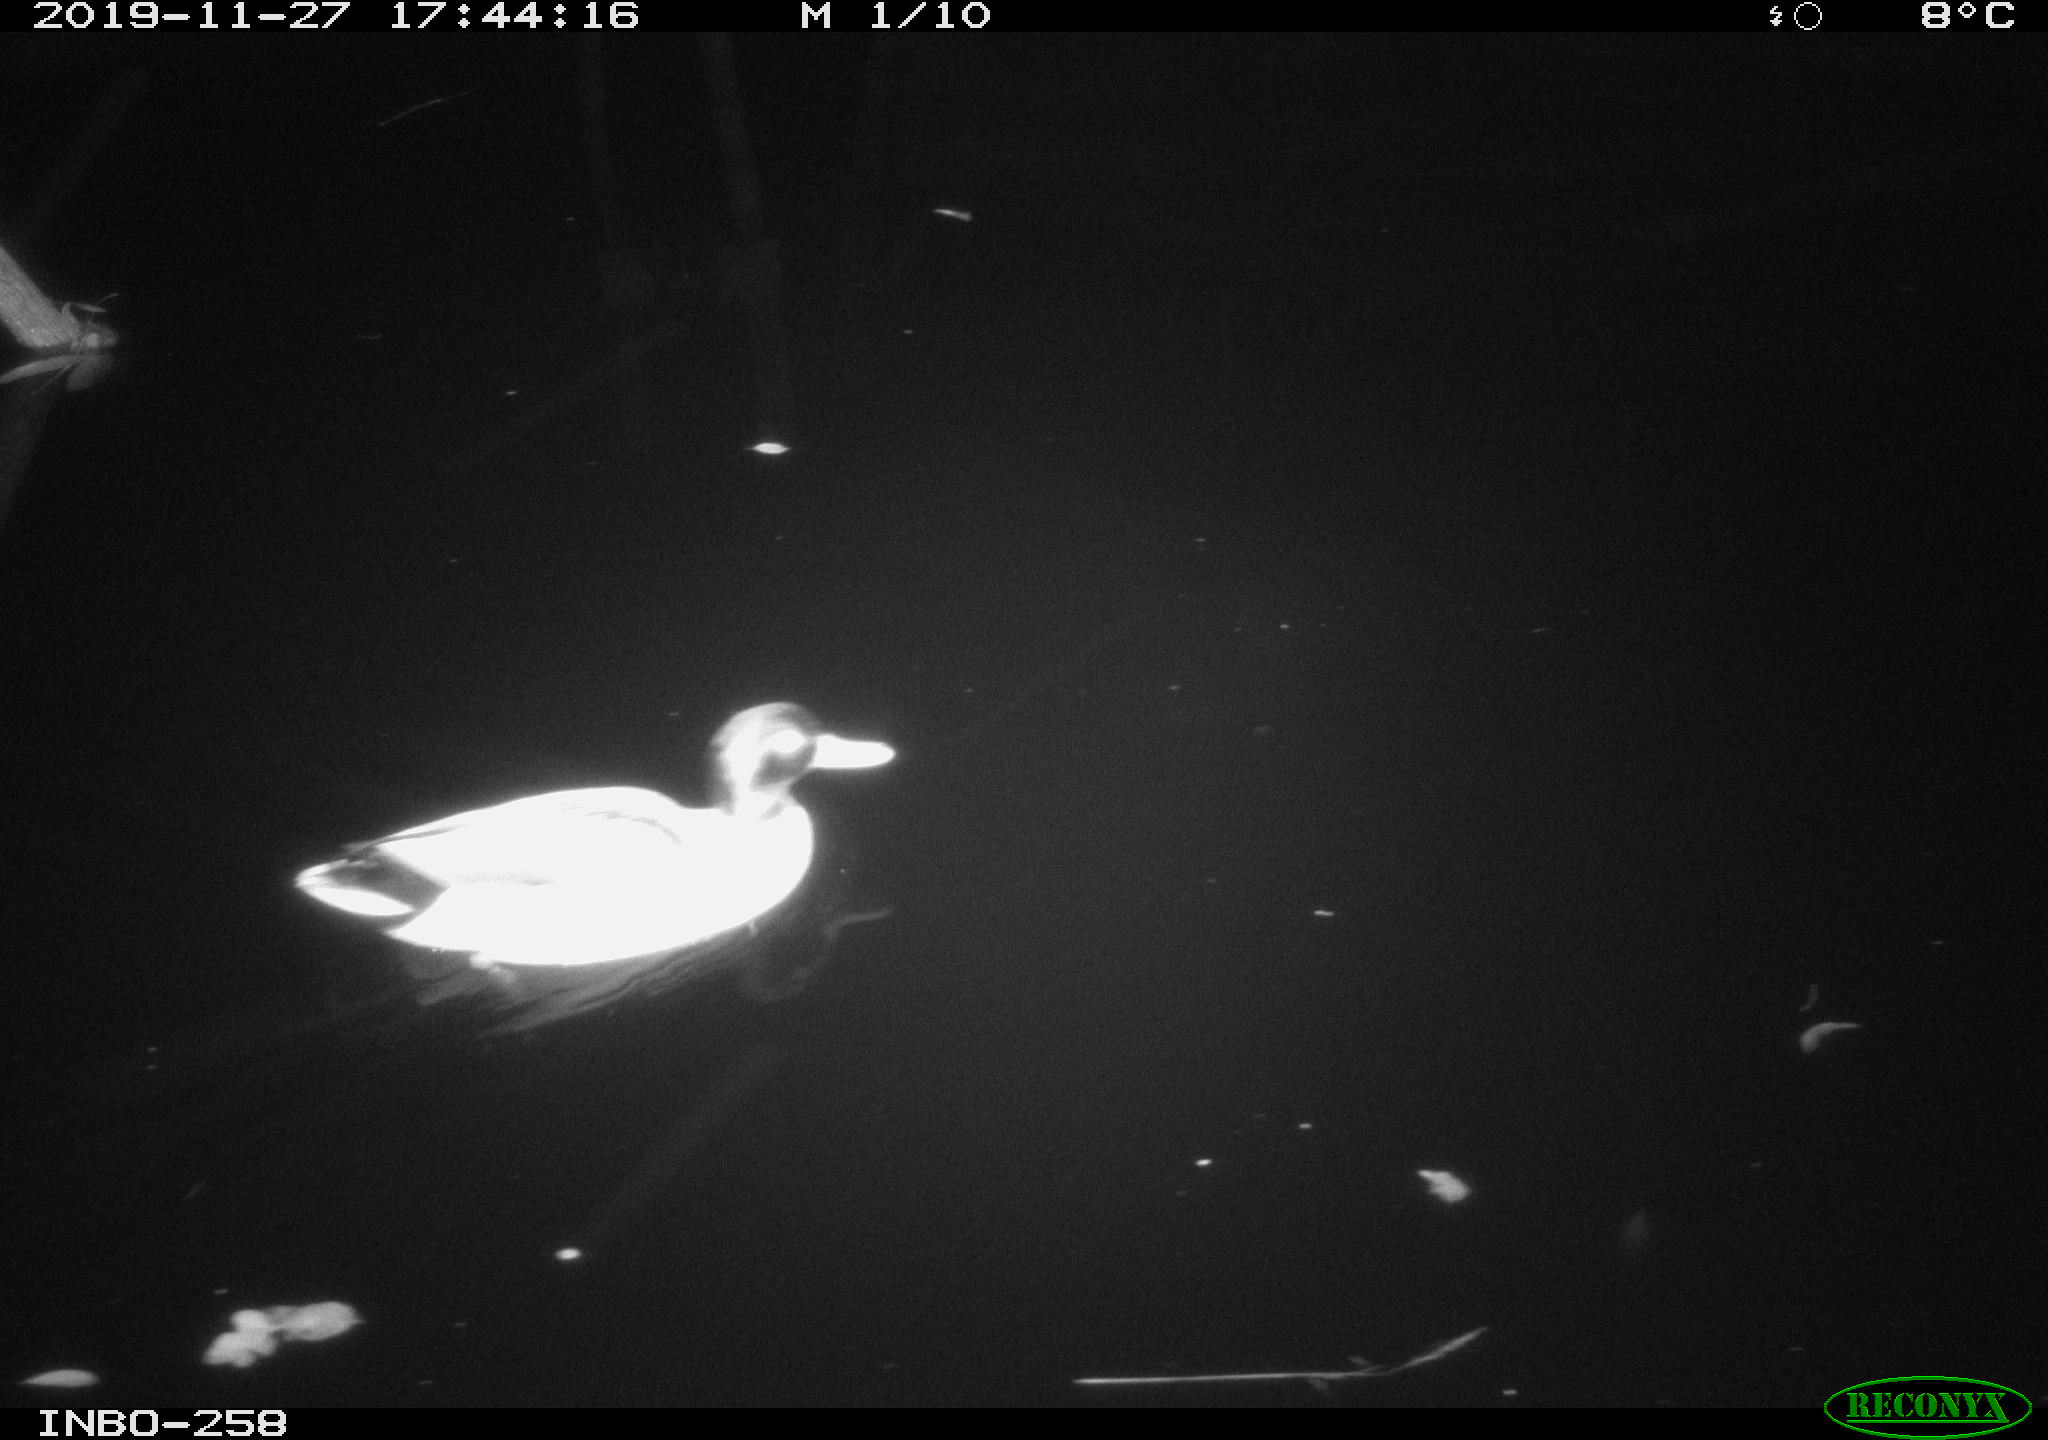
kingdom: Animalia
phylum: Chordata
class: Aves
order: Anseriformes
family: Anatidae
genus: Anas
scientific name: Anas platyrhynchos
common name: Mallard
